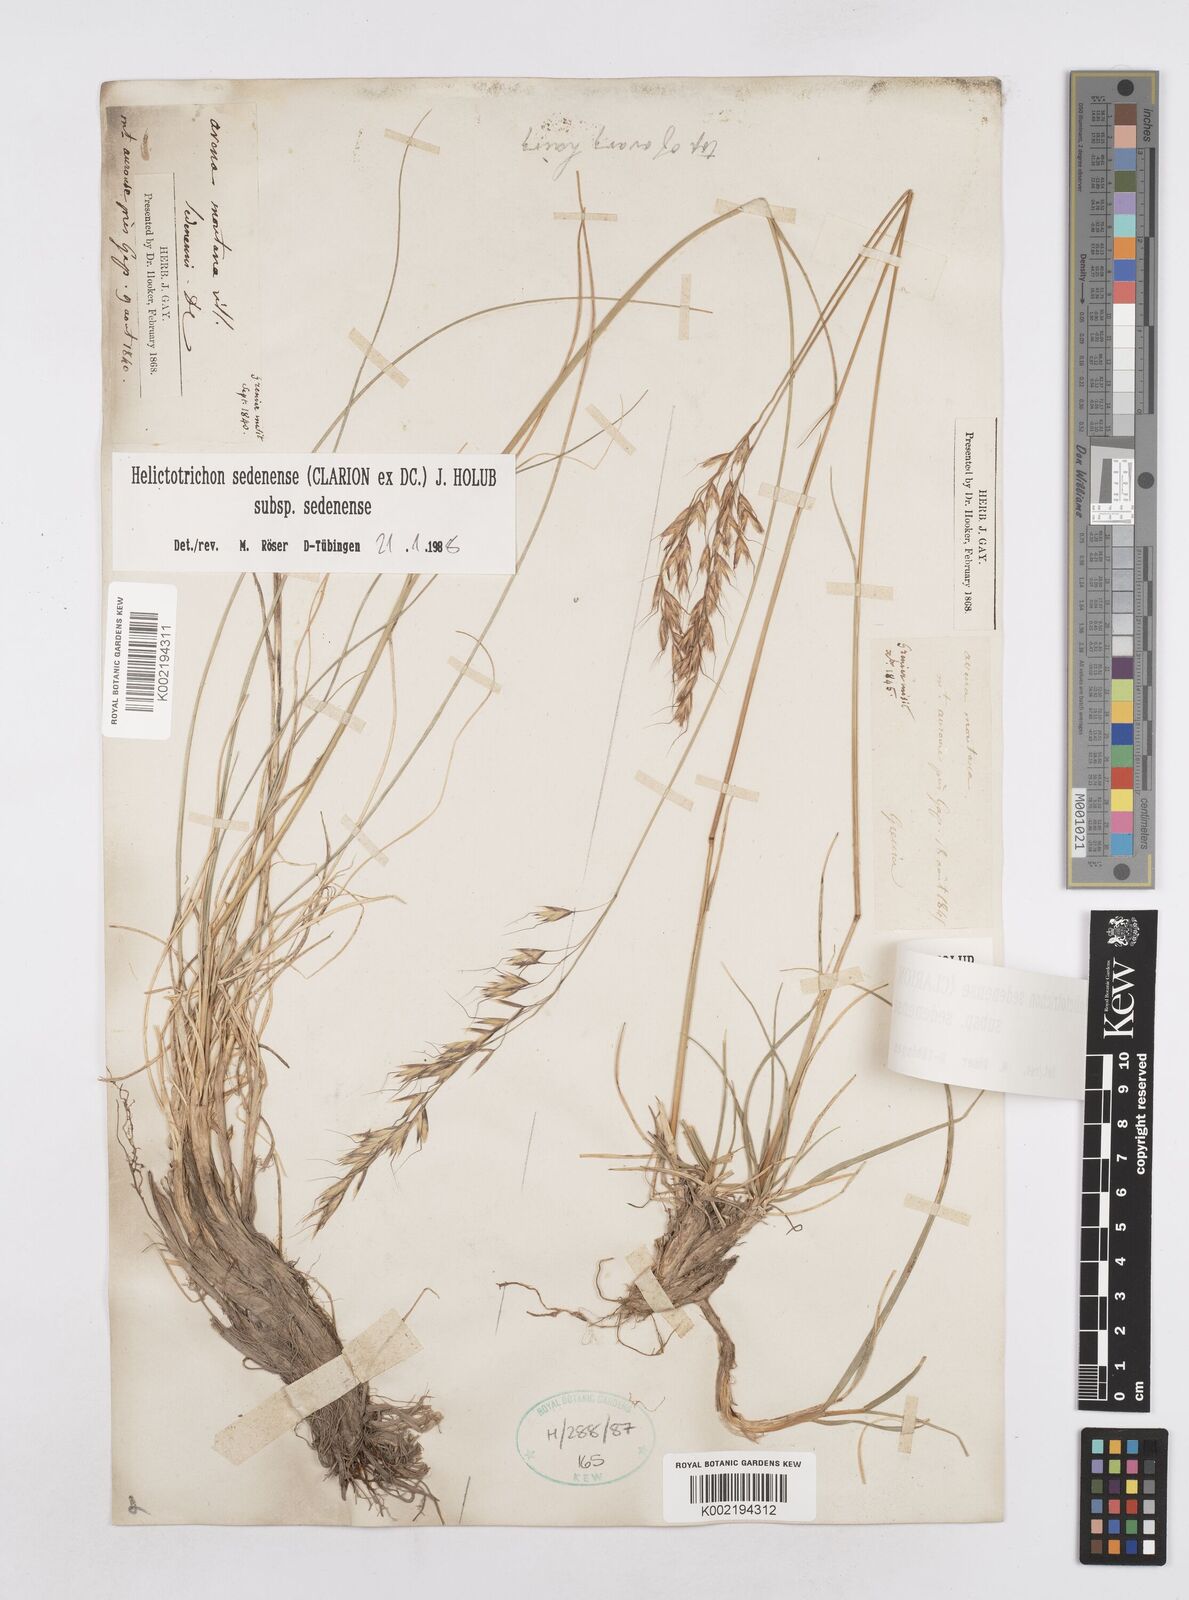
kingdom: Plantae
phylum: Tracheophyta
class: Liliopsida
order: Poales
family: Poaceae
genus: Helictotrichon
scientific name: Helictotrichon sedenense
